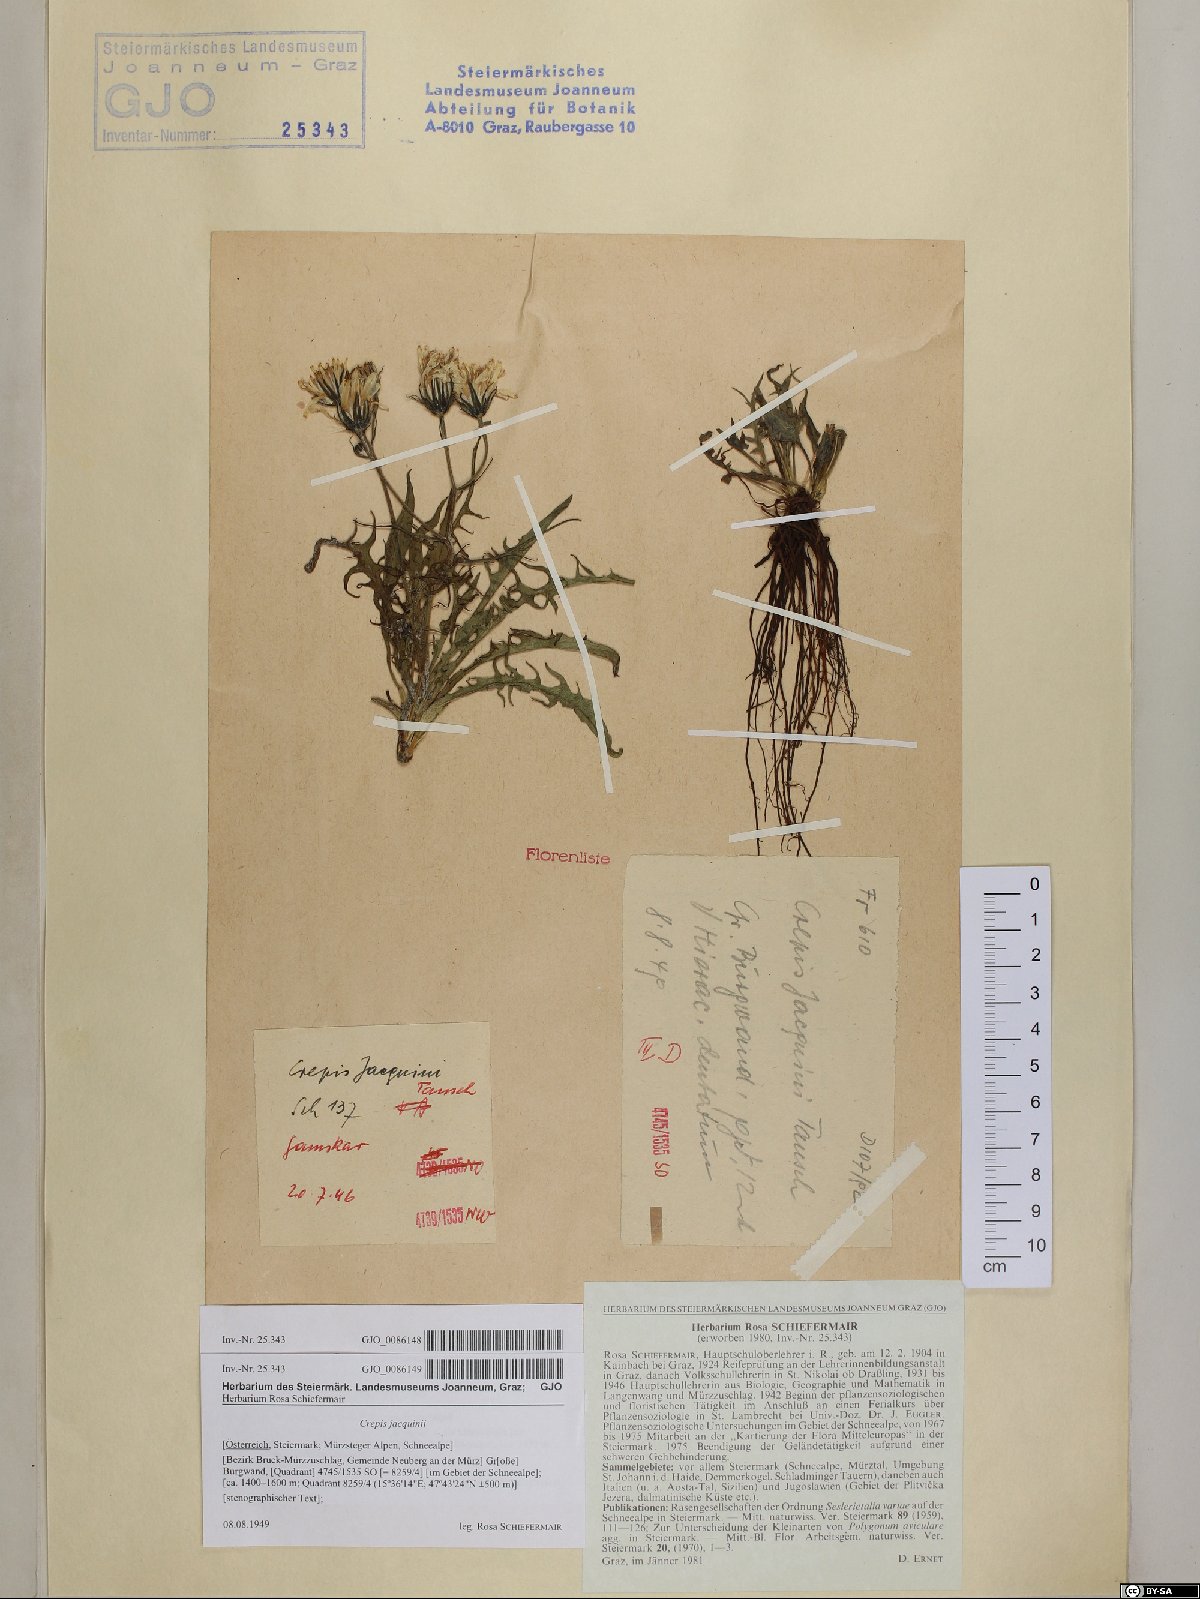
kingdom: Plantae
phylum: Tracheophyta
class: Magnoliopsida
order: Asterales
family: Asteraceae
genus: Crepis
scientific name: Crepis jacquinii
